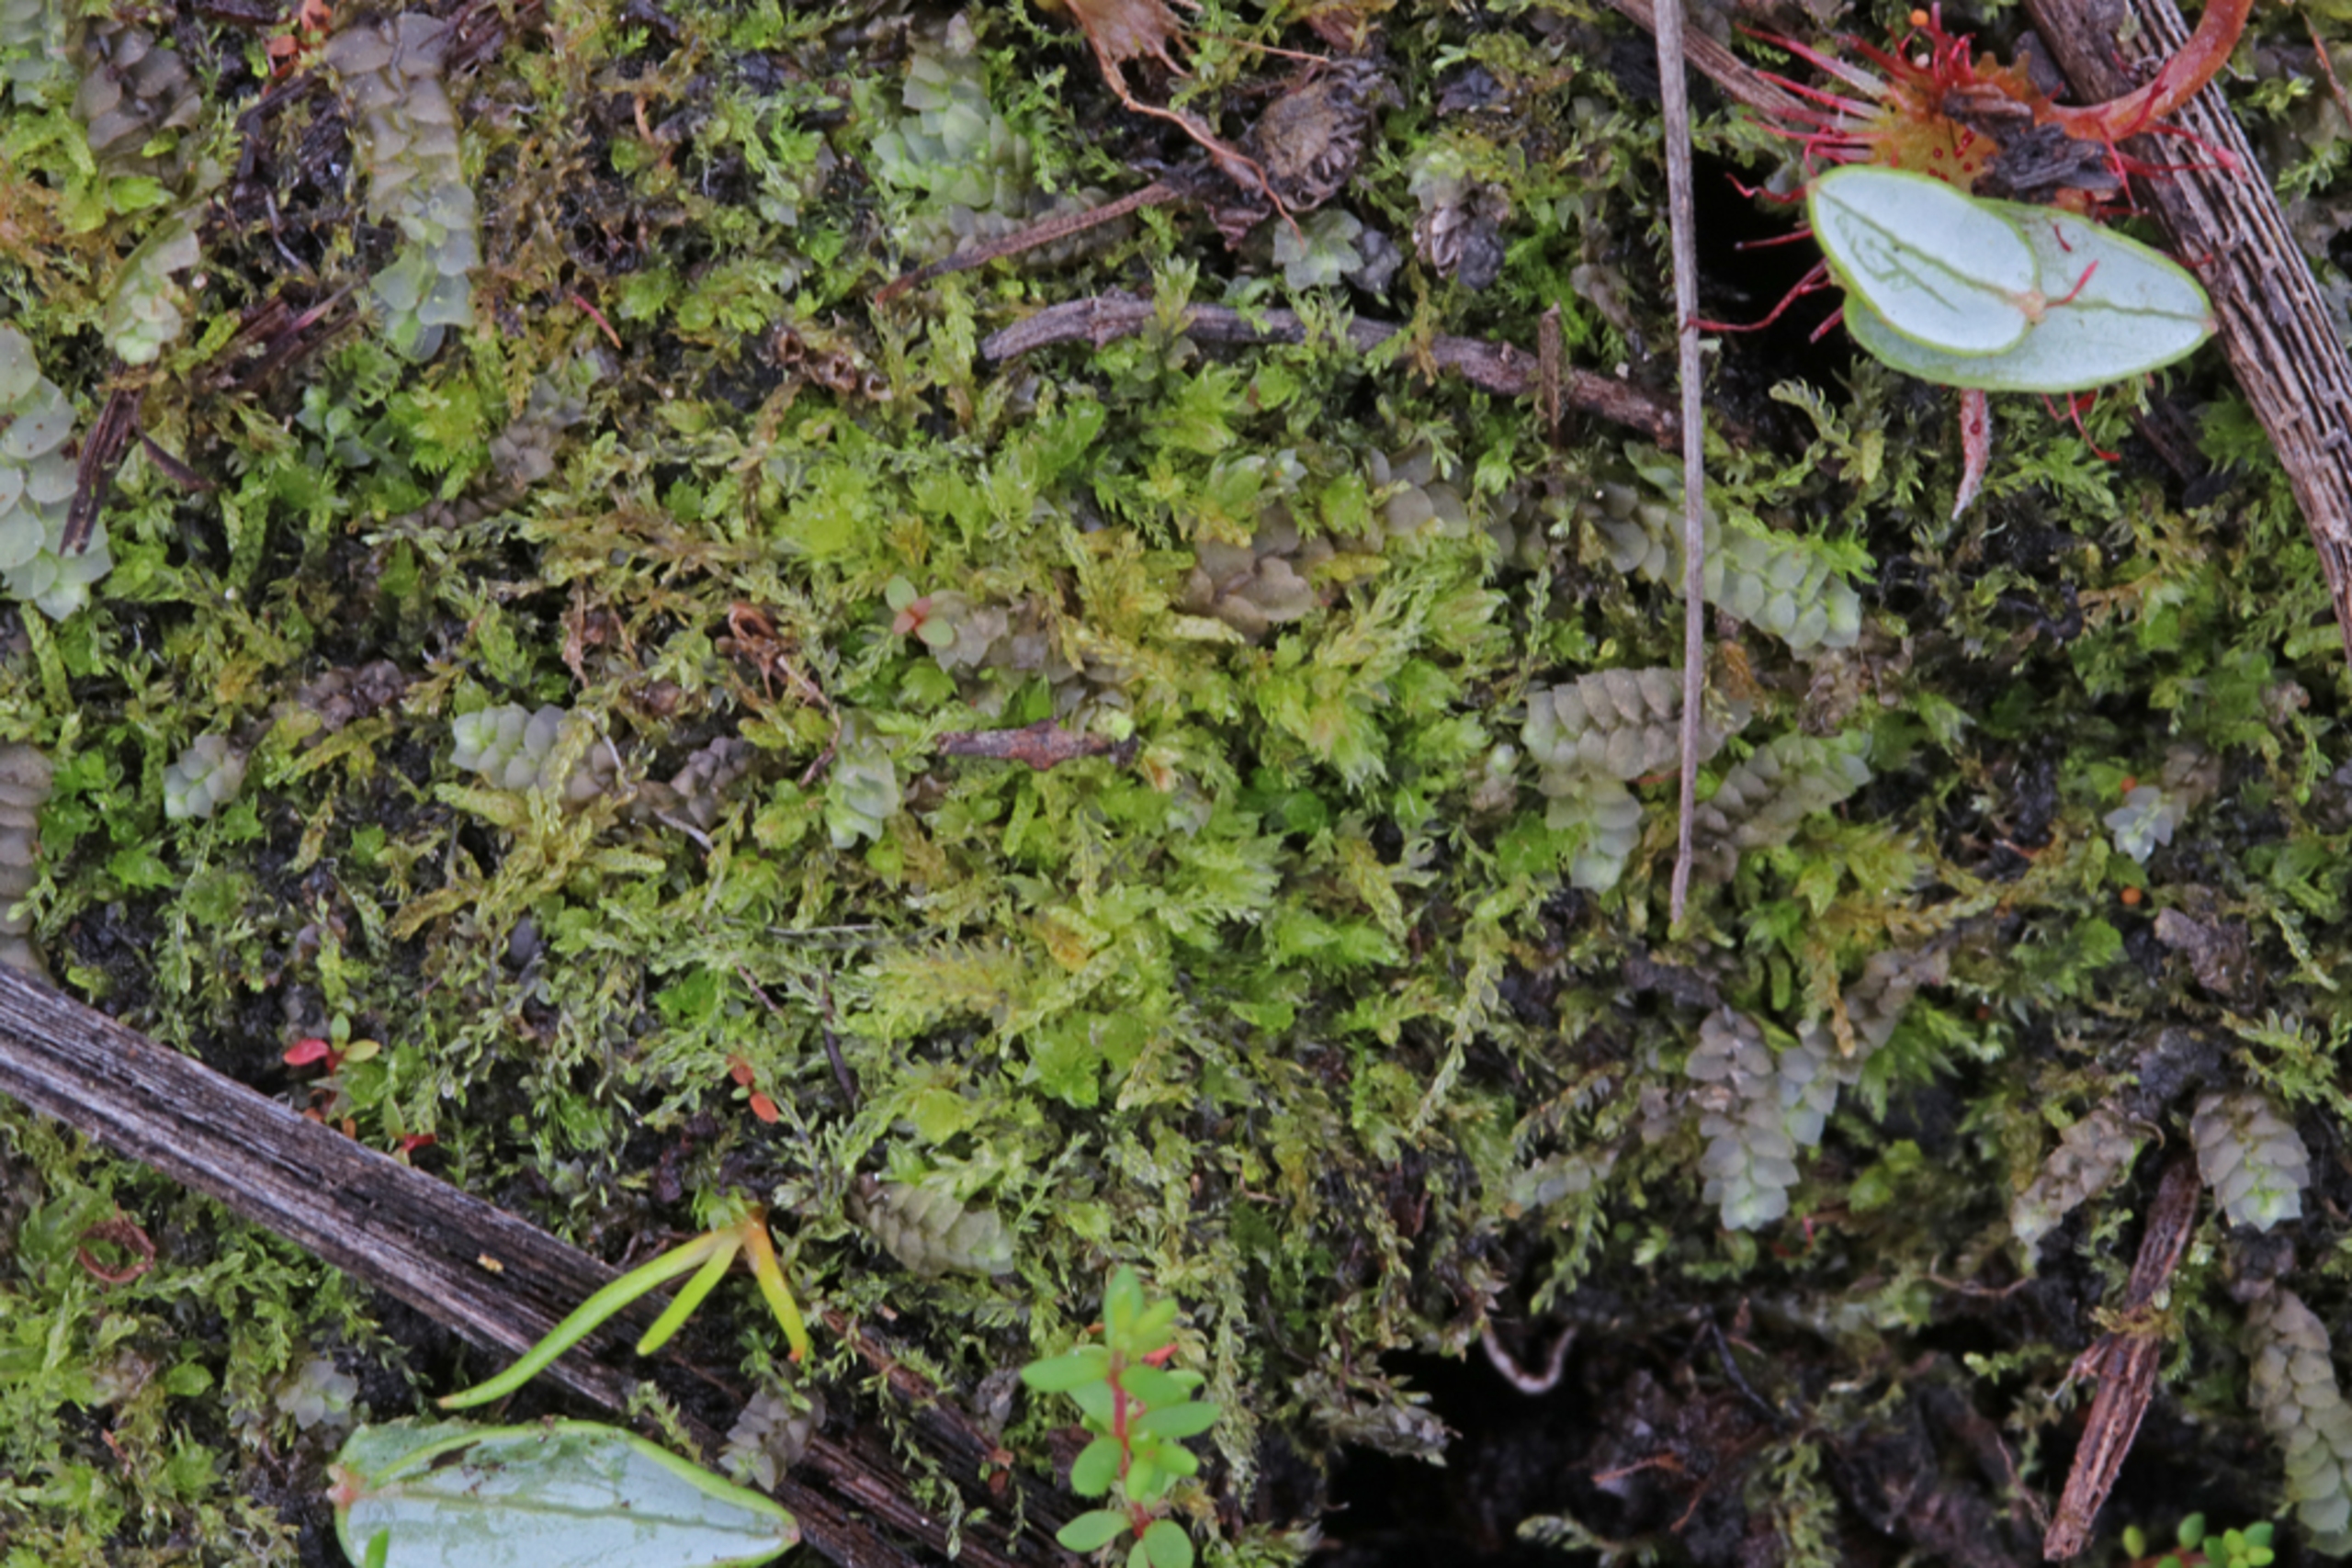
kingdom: Plantae
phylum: Marchantiophyta
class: Jungermanniopsida
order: Jungermanniales
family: Cephaloziaceae
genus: Cephalozia
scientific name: Cephalozia bicuspidata
